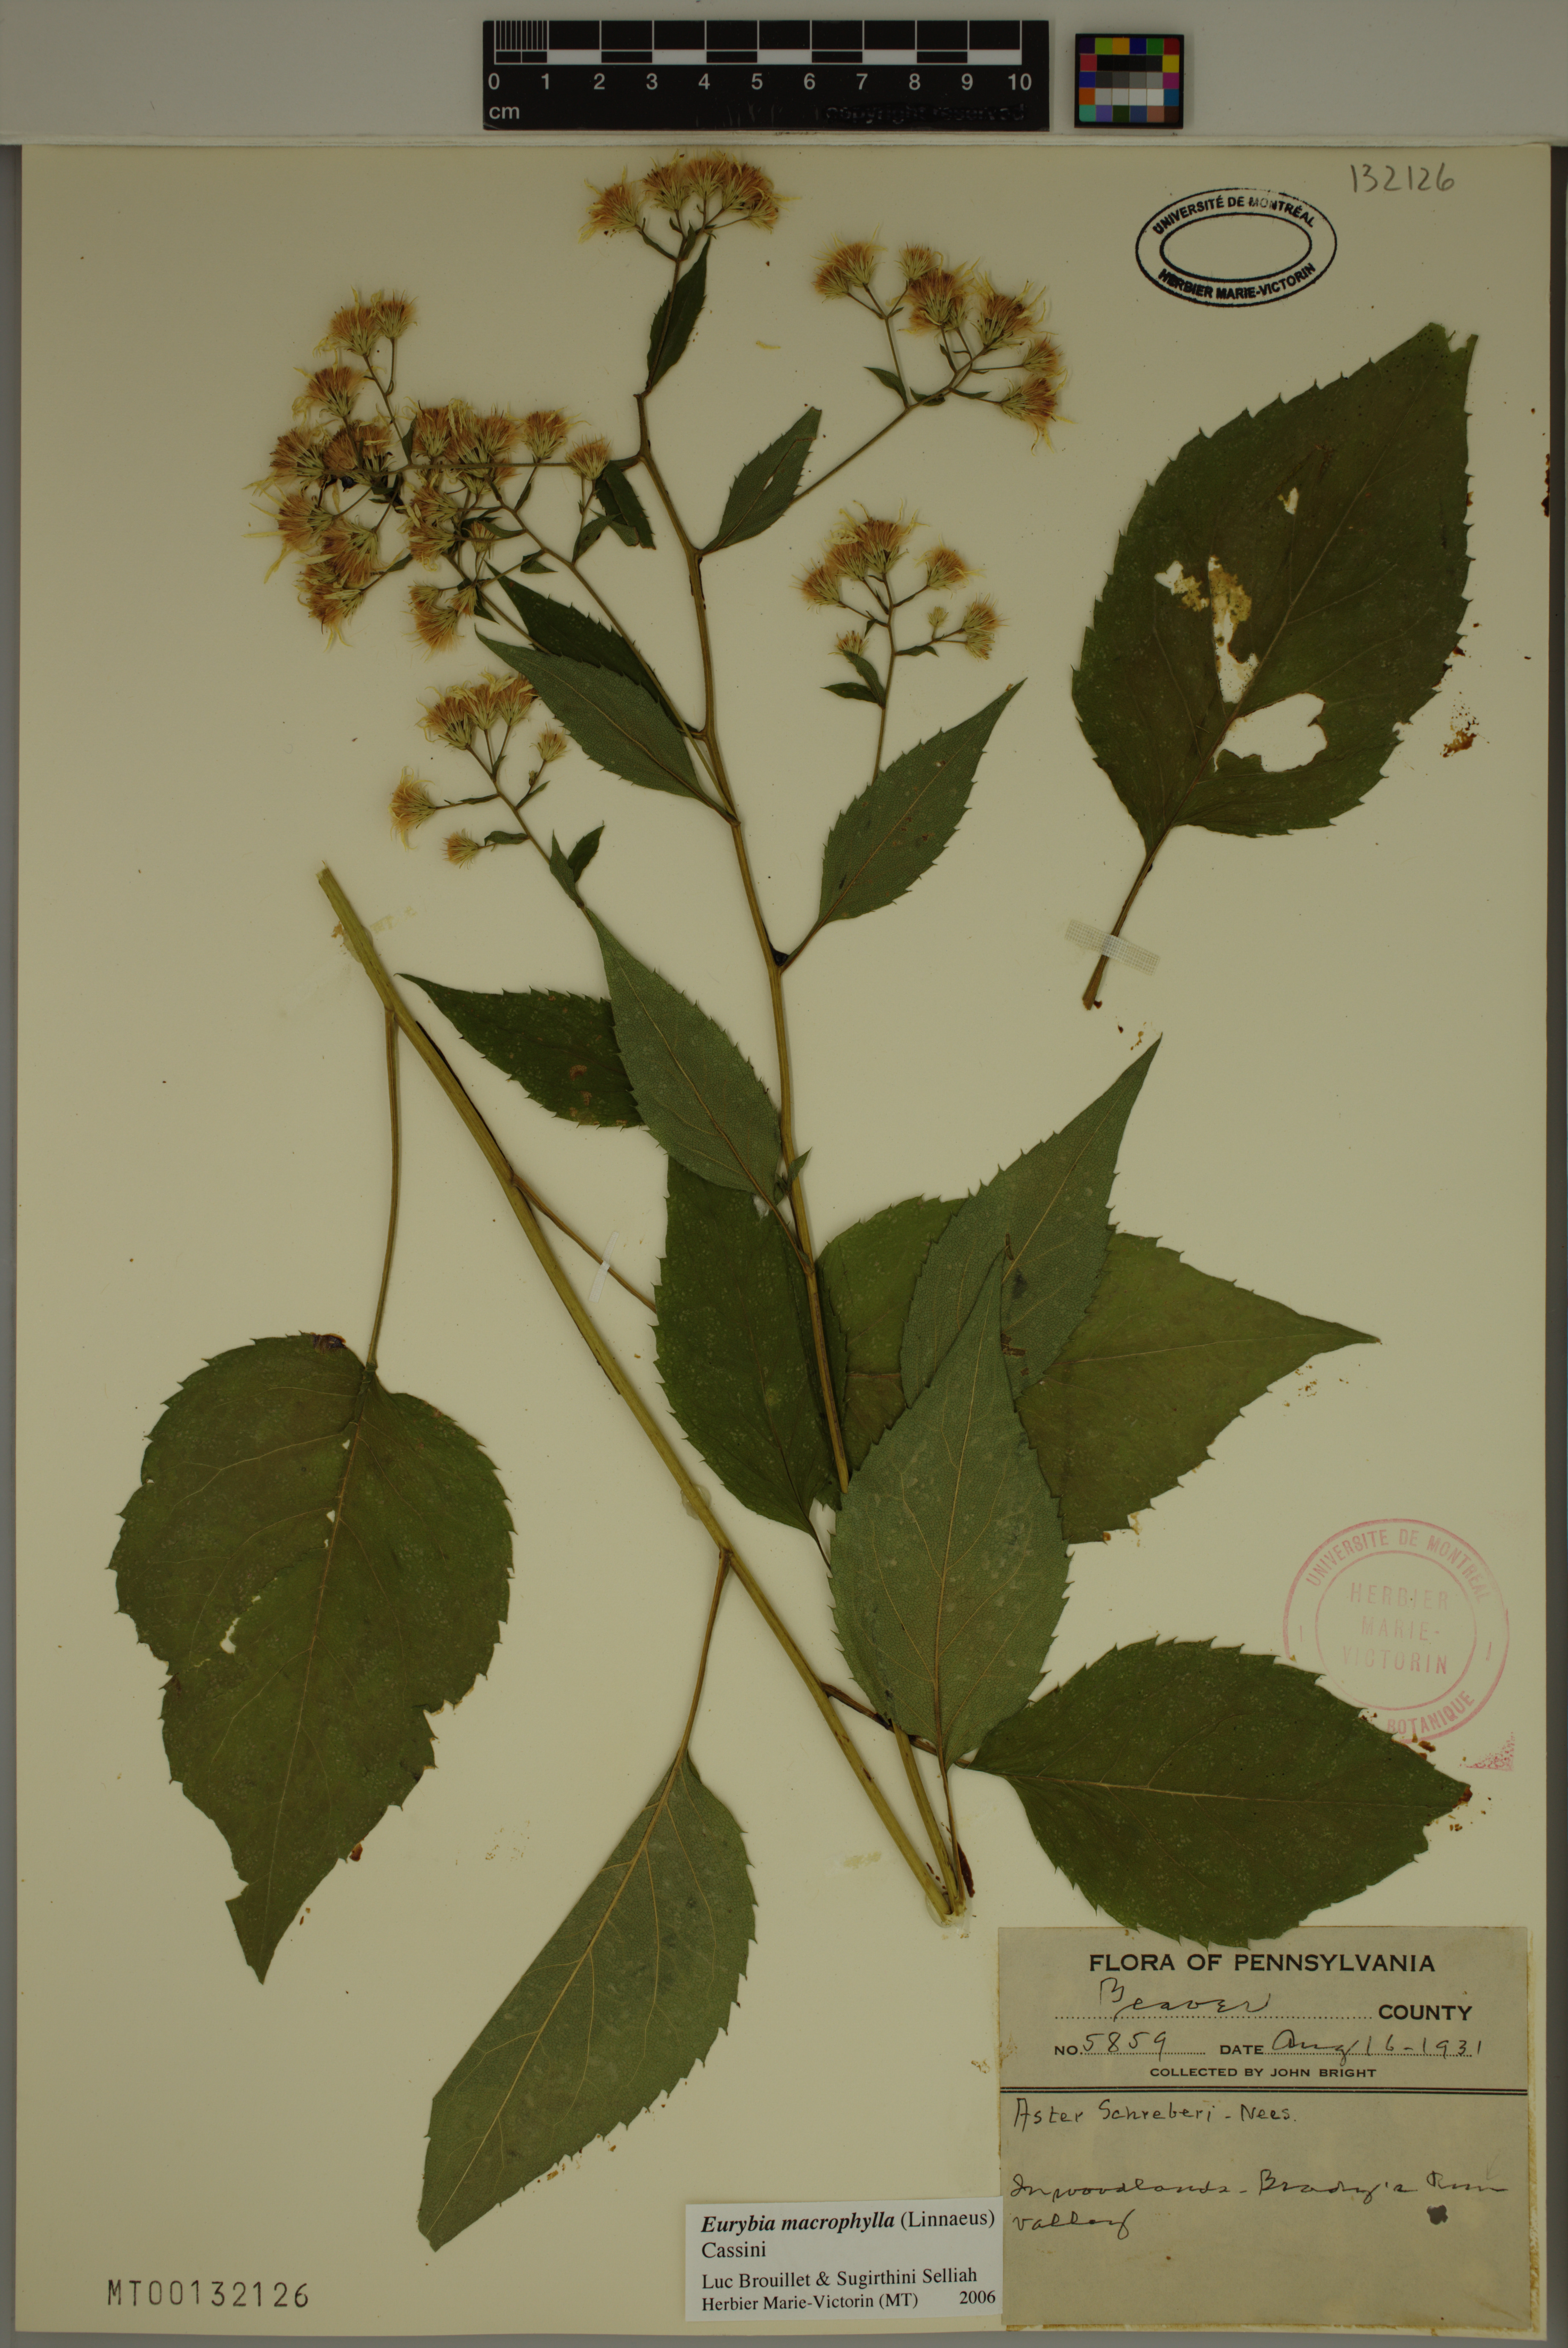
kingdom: Plantae
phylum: Tracheophyta
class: Magnoliopsida
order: Asterales
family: Asteraceae
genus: Eurybia
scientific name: Eurybia macrophylla
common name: Big-leaved aster
